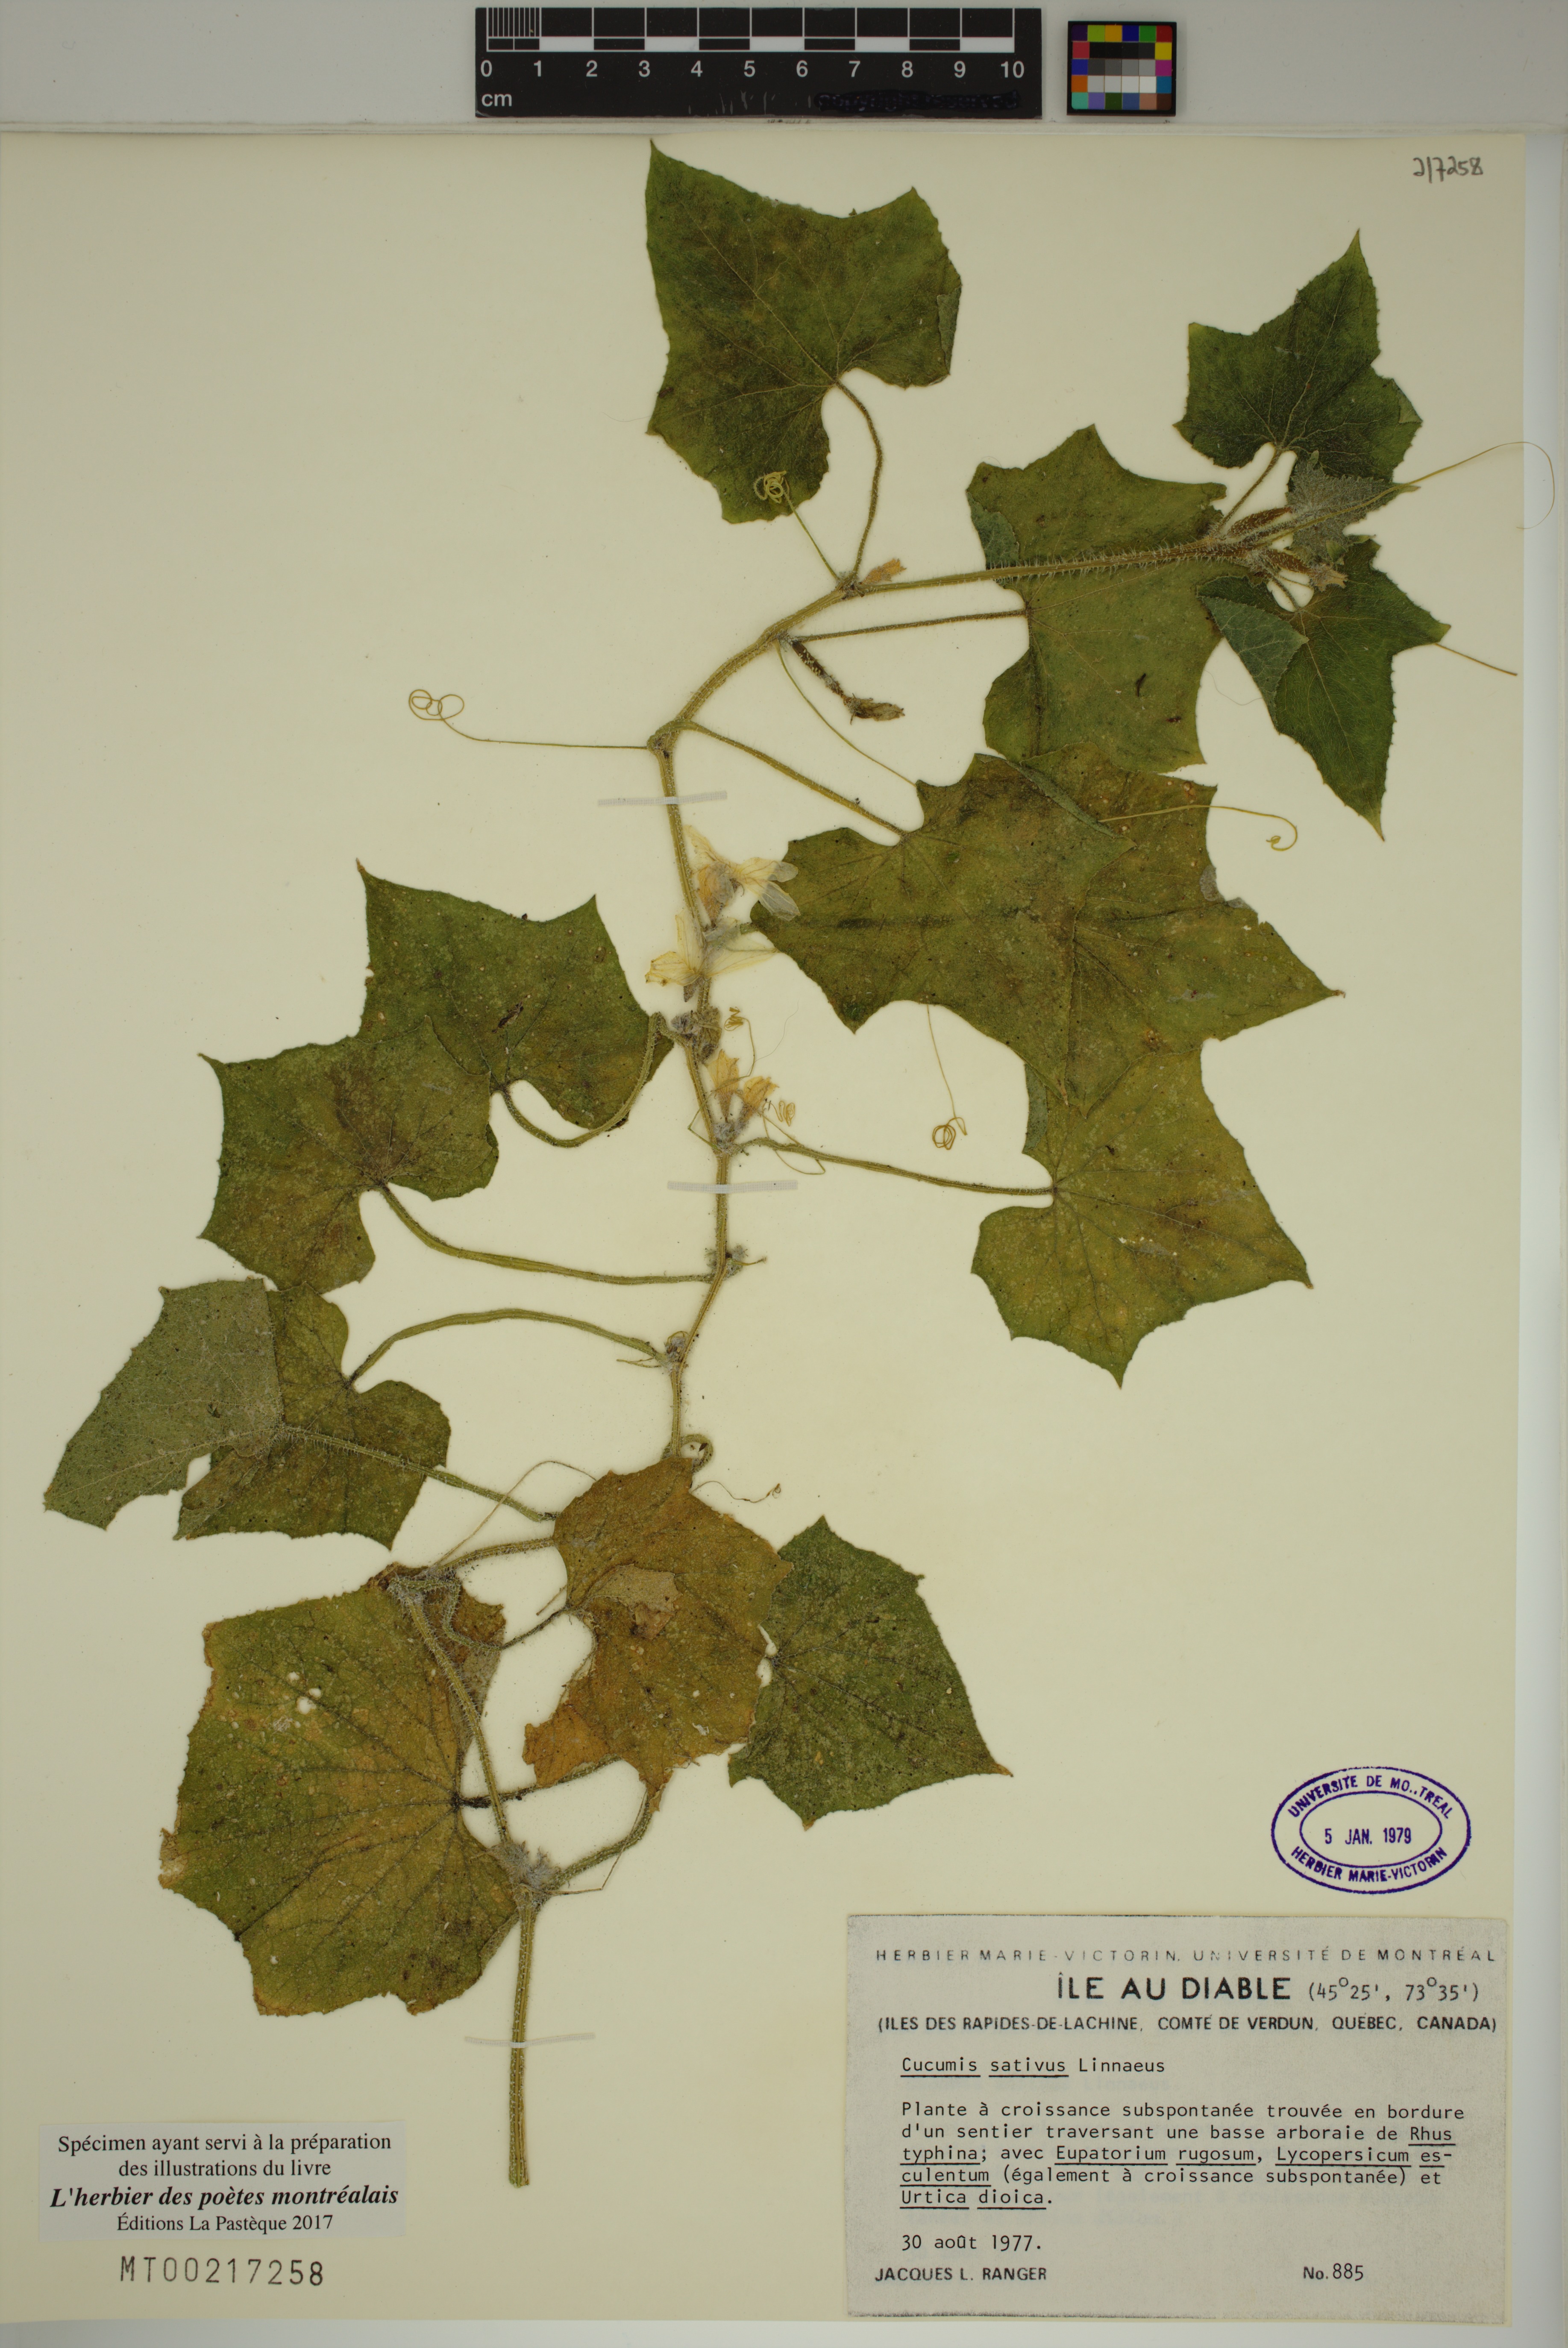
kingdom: Plantae
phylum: Tracheophyta
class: Magnoliopsida
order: Cucurbitales
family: Cucurbitaceae
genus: Cucumis
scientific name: Cucumis sativus
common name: Cucumber
